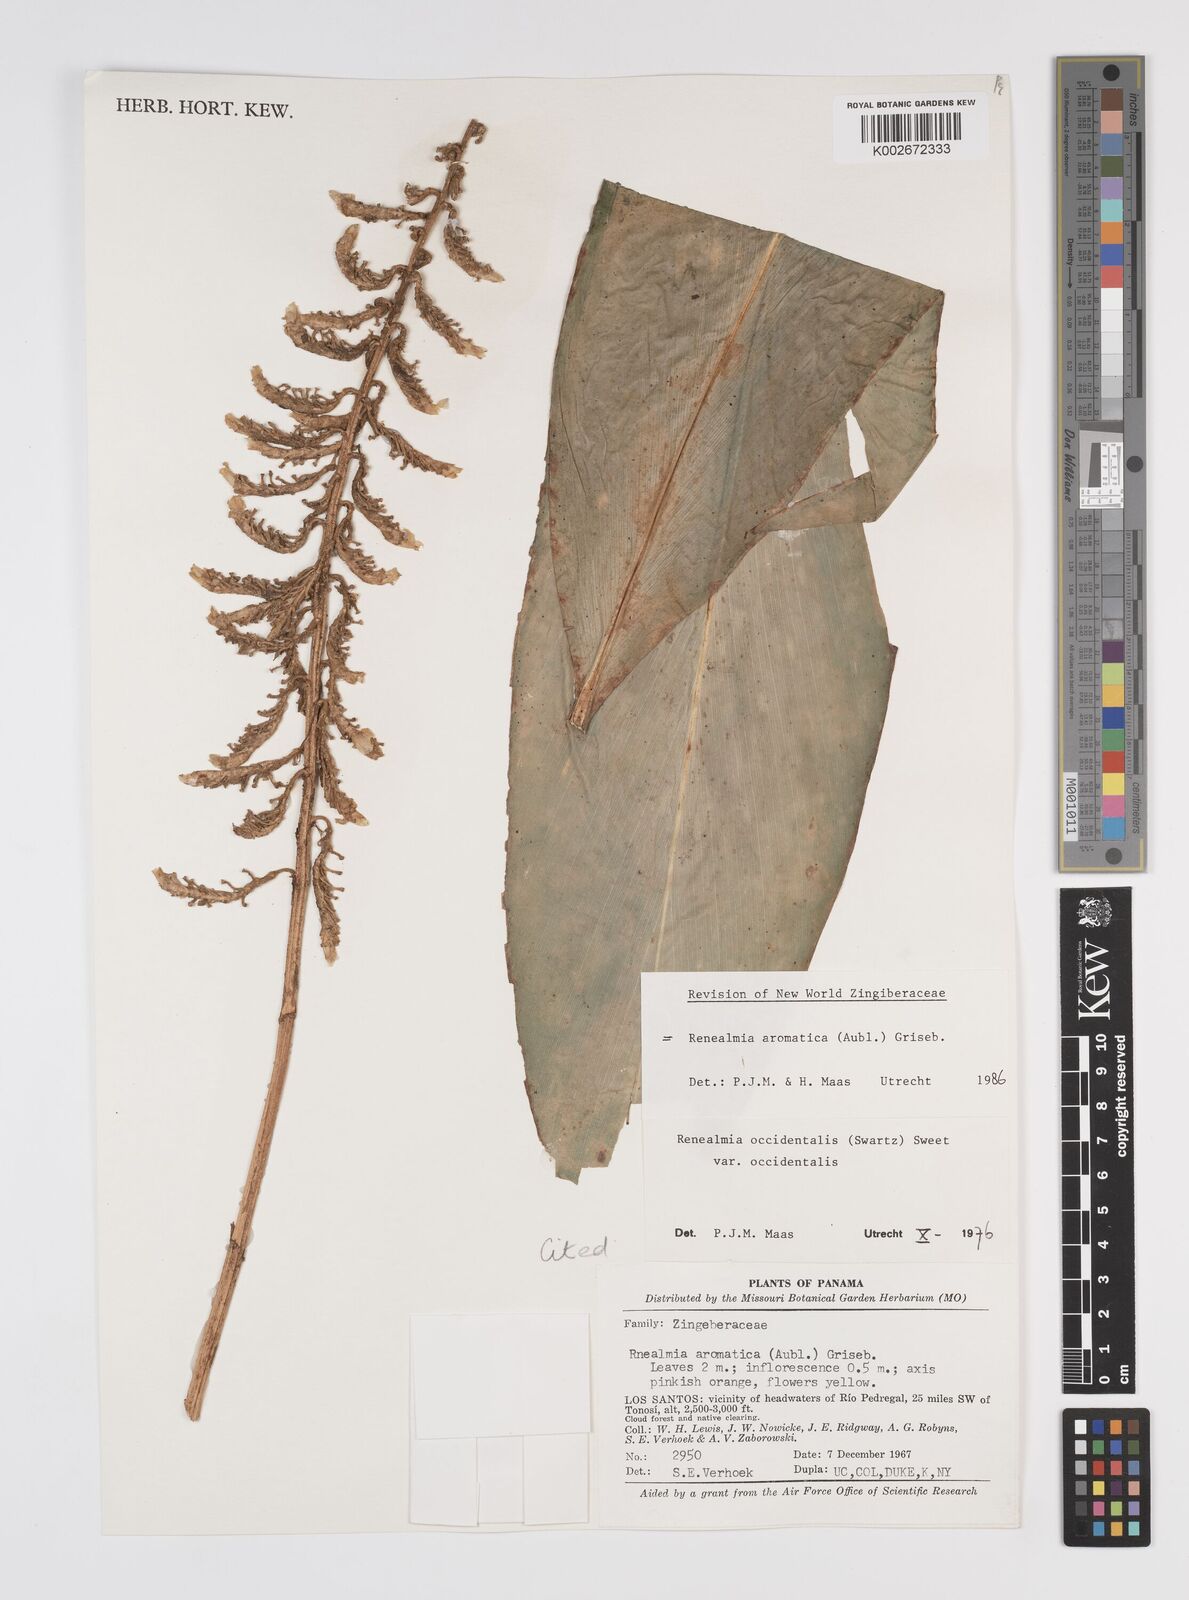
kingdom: Plantae
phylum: Tracheophyta
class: Liliopsida
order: Zingiberales
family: Zingiberaceae
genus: Renealmia
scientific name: Renealmia aromatica
